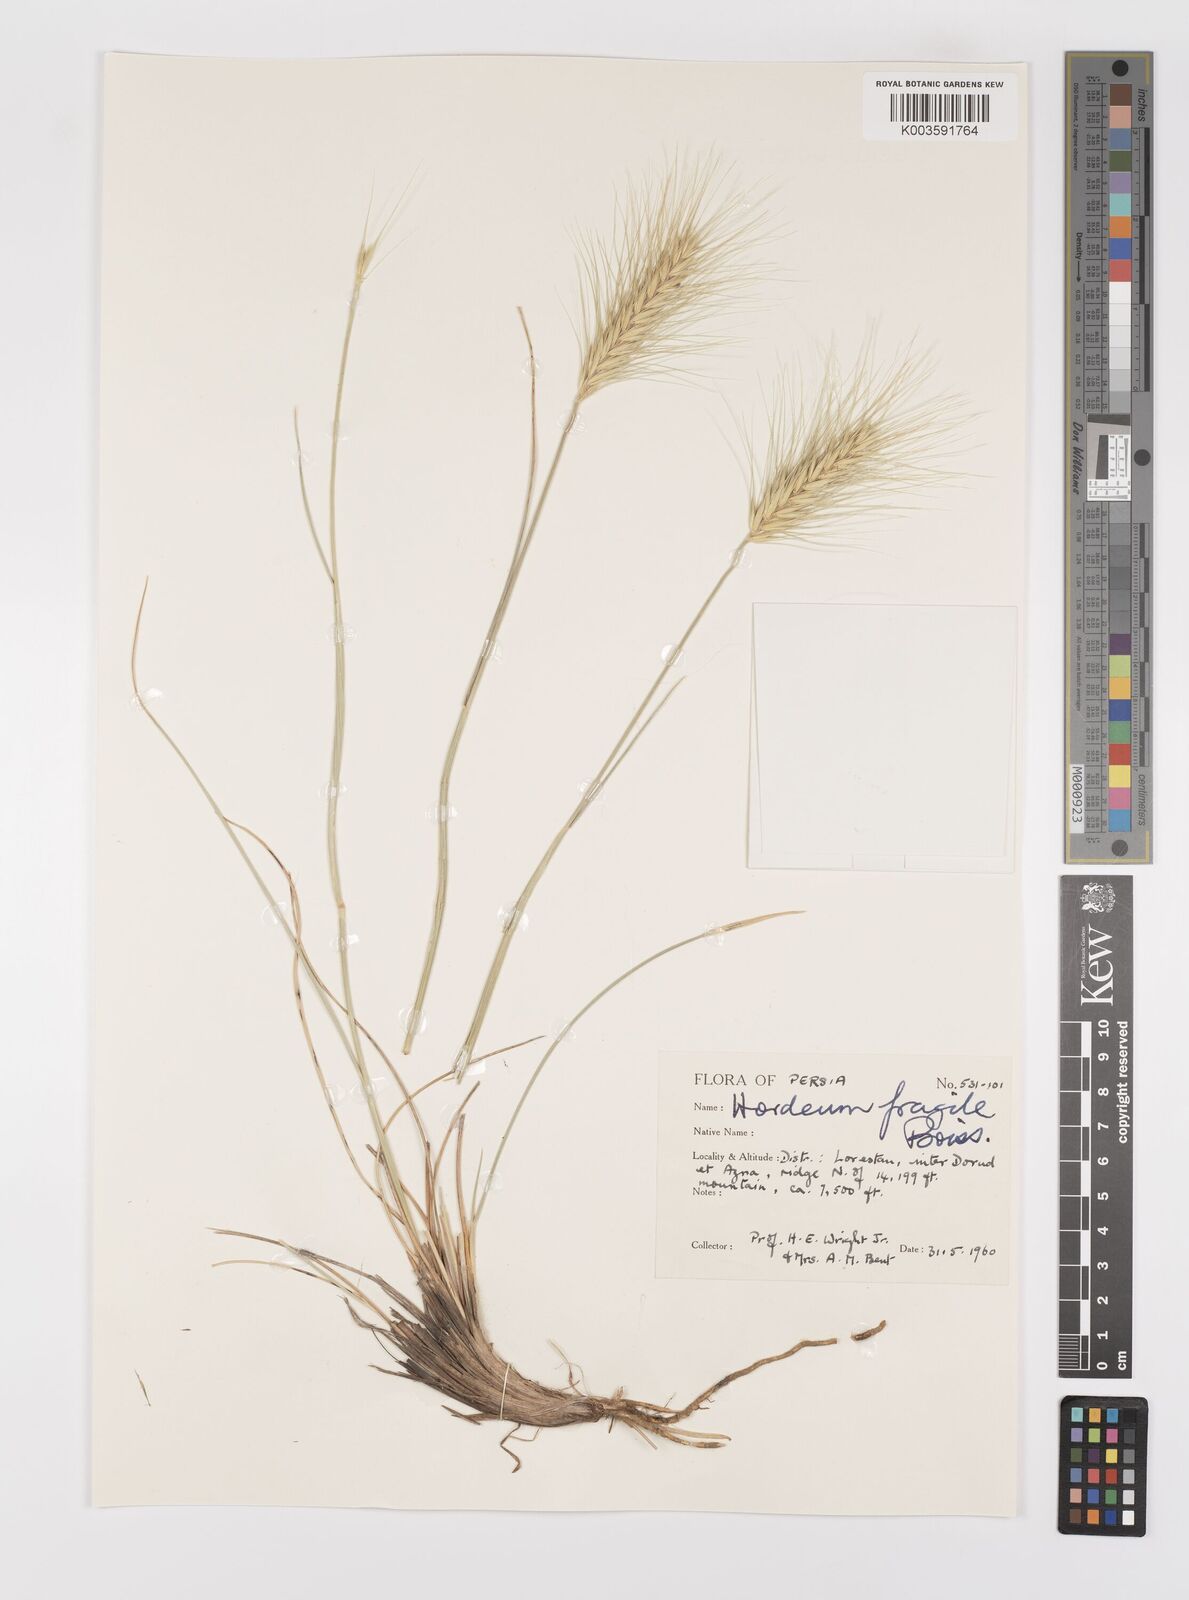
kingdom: Plantae
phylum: Tracheophyta
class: Liliopsida
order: Poales
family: Poaceae
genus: Psathyrostachys
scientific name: Psathyrostachys fragilis
